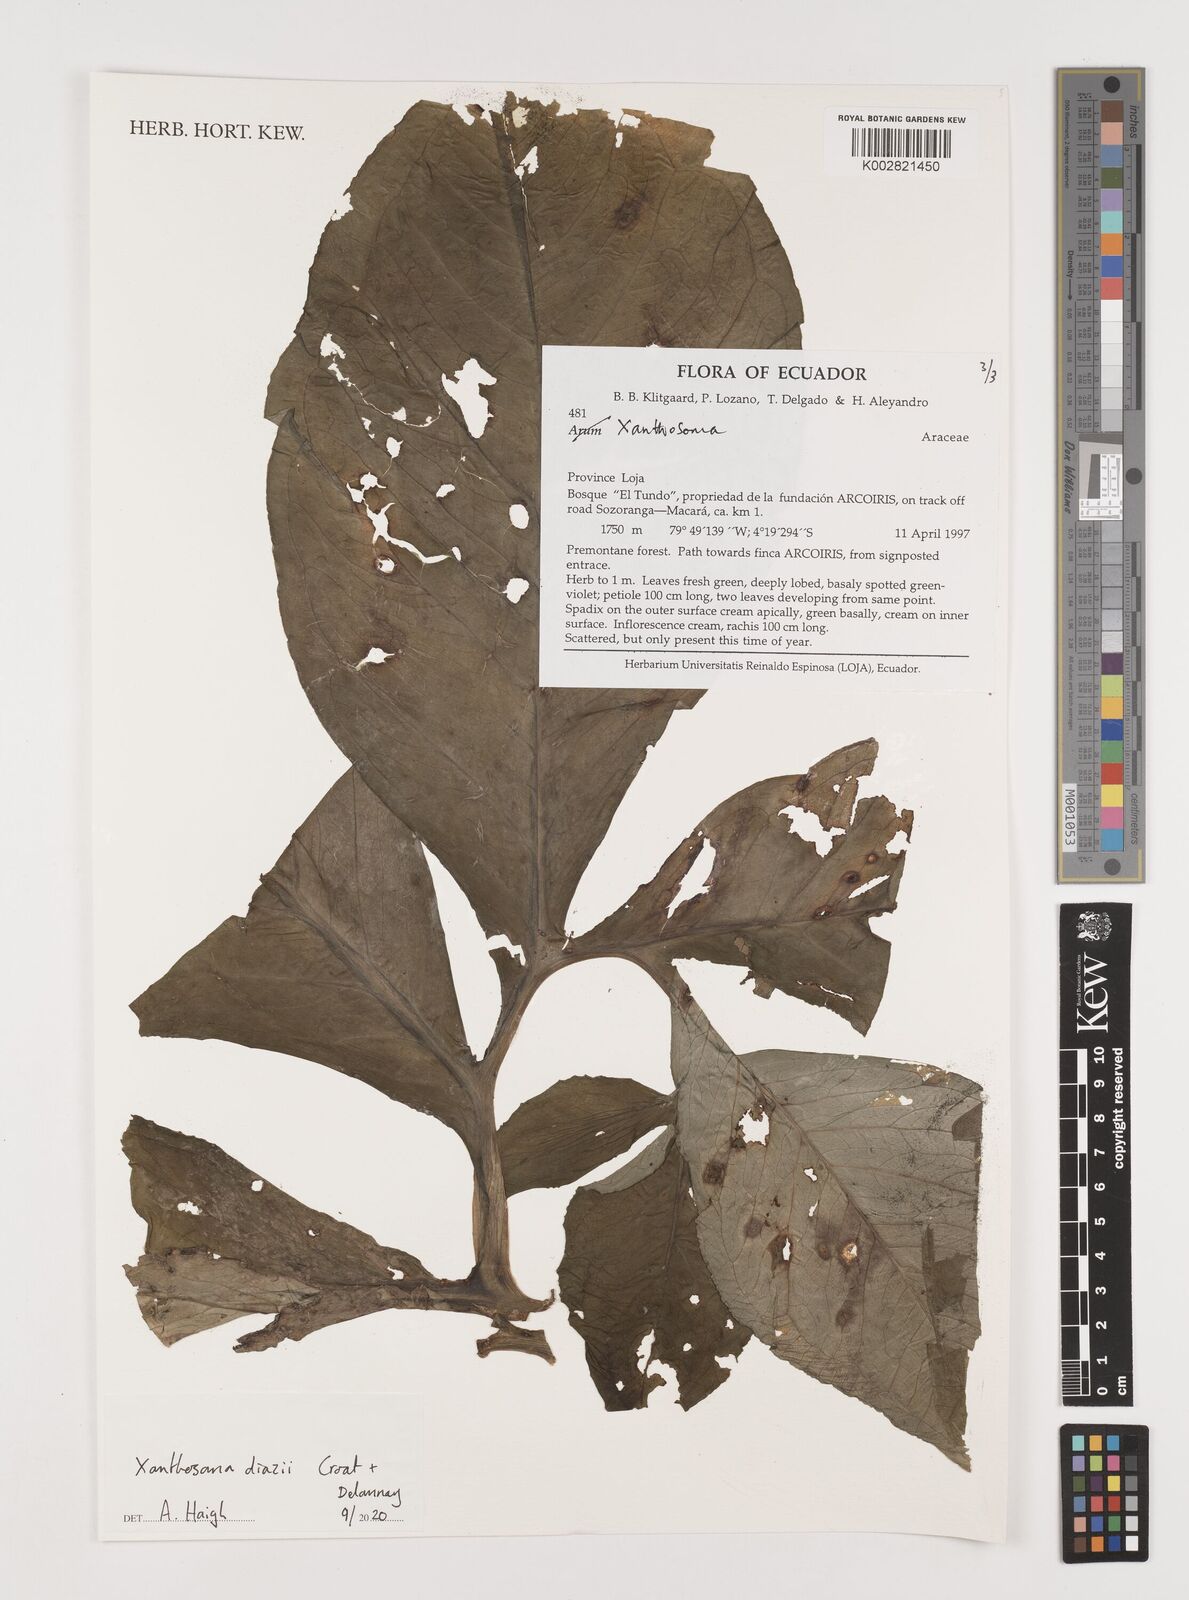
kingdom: Plantae
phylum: Tracheophyta
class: Liliopsida
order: Alismatales
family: Araceae
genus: Xanthosoma
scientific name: Xanthosoma diazii
